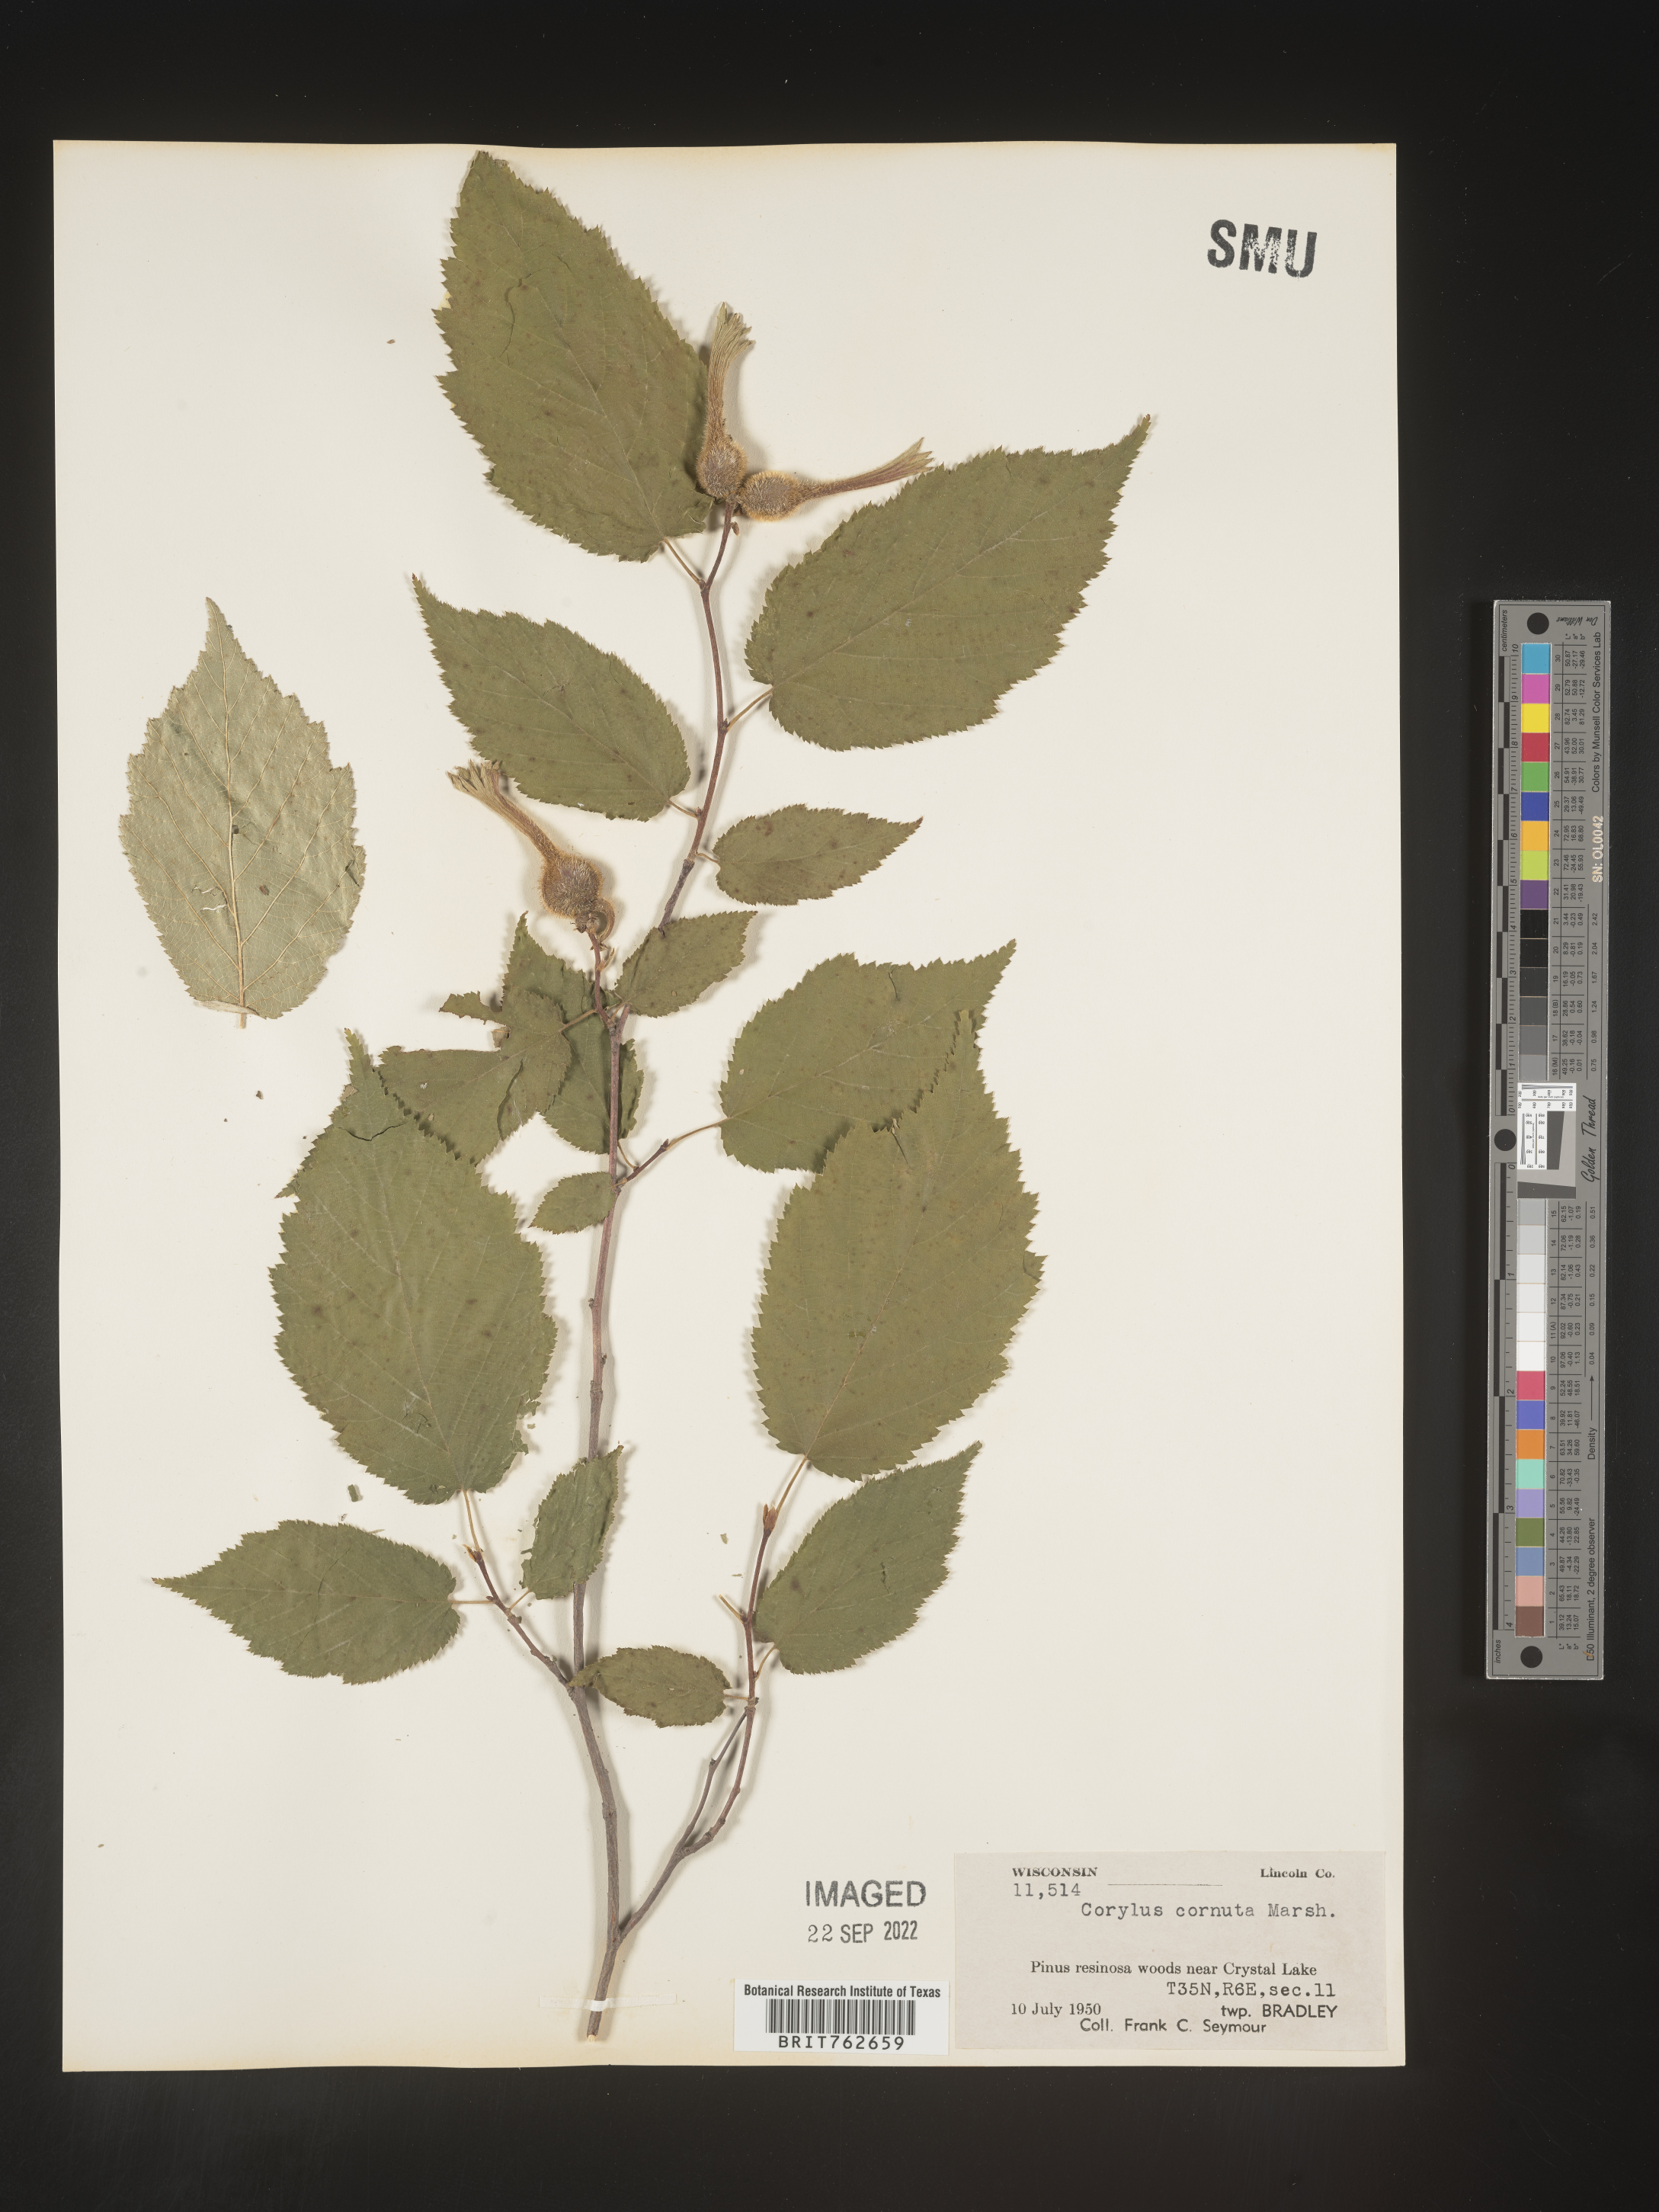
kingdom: Plantae
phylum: Tracheophyta
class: Magnoliopsida
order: Fagales
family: Betulaceae
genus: Corylus
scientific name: Corylus cornuta
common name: Beaked hazel
